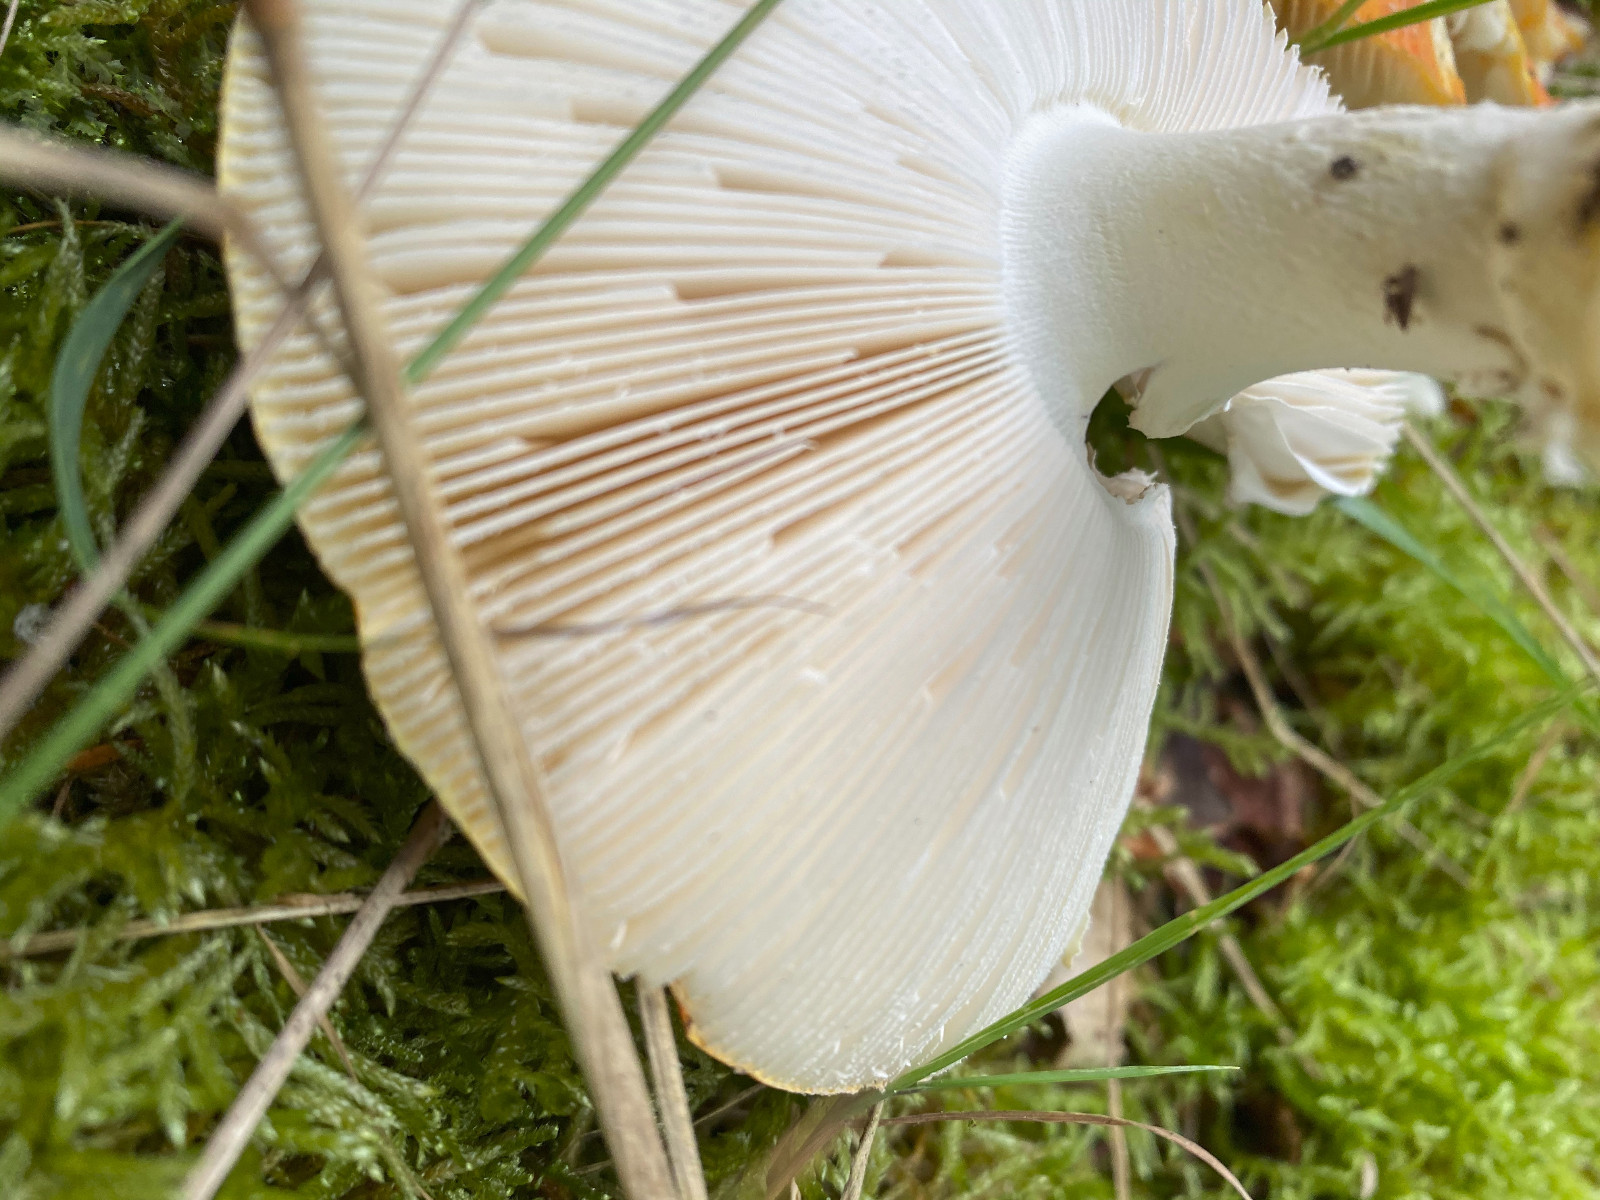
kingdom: Fungi
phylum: Basidiomycota
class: Agaricomycetes
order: Agaricales
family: Amanitaceae
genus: Amanita
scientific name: Amanita muscaria
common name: rød fluesvamp
